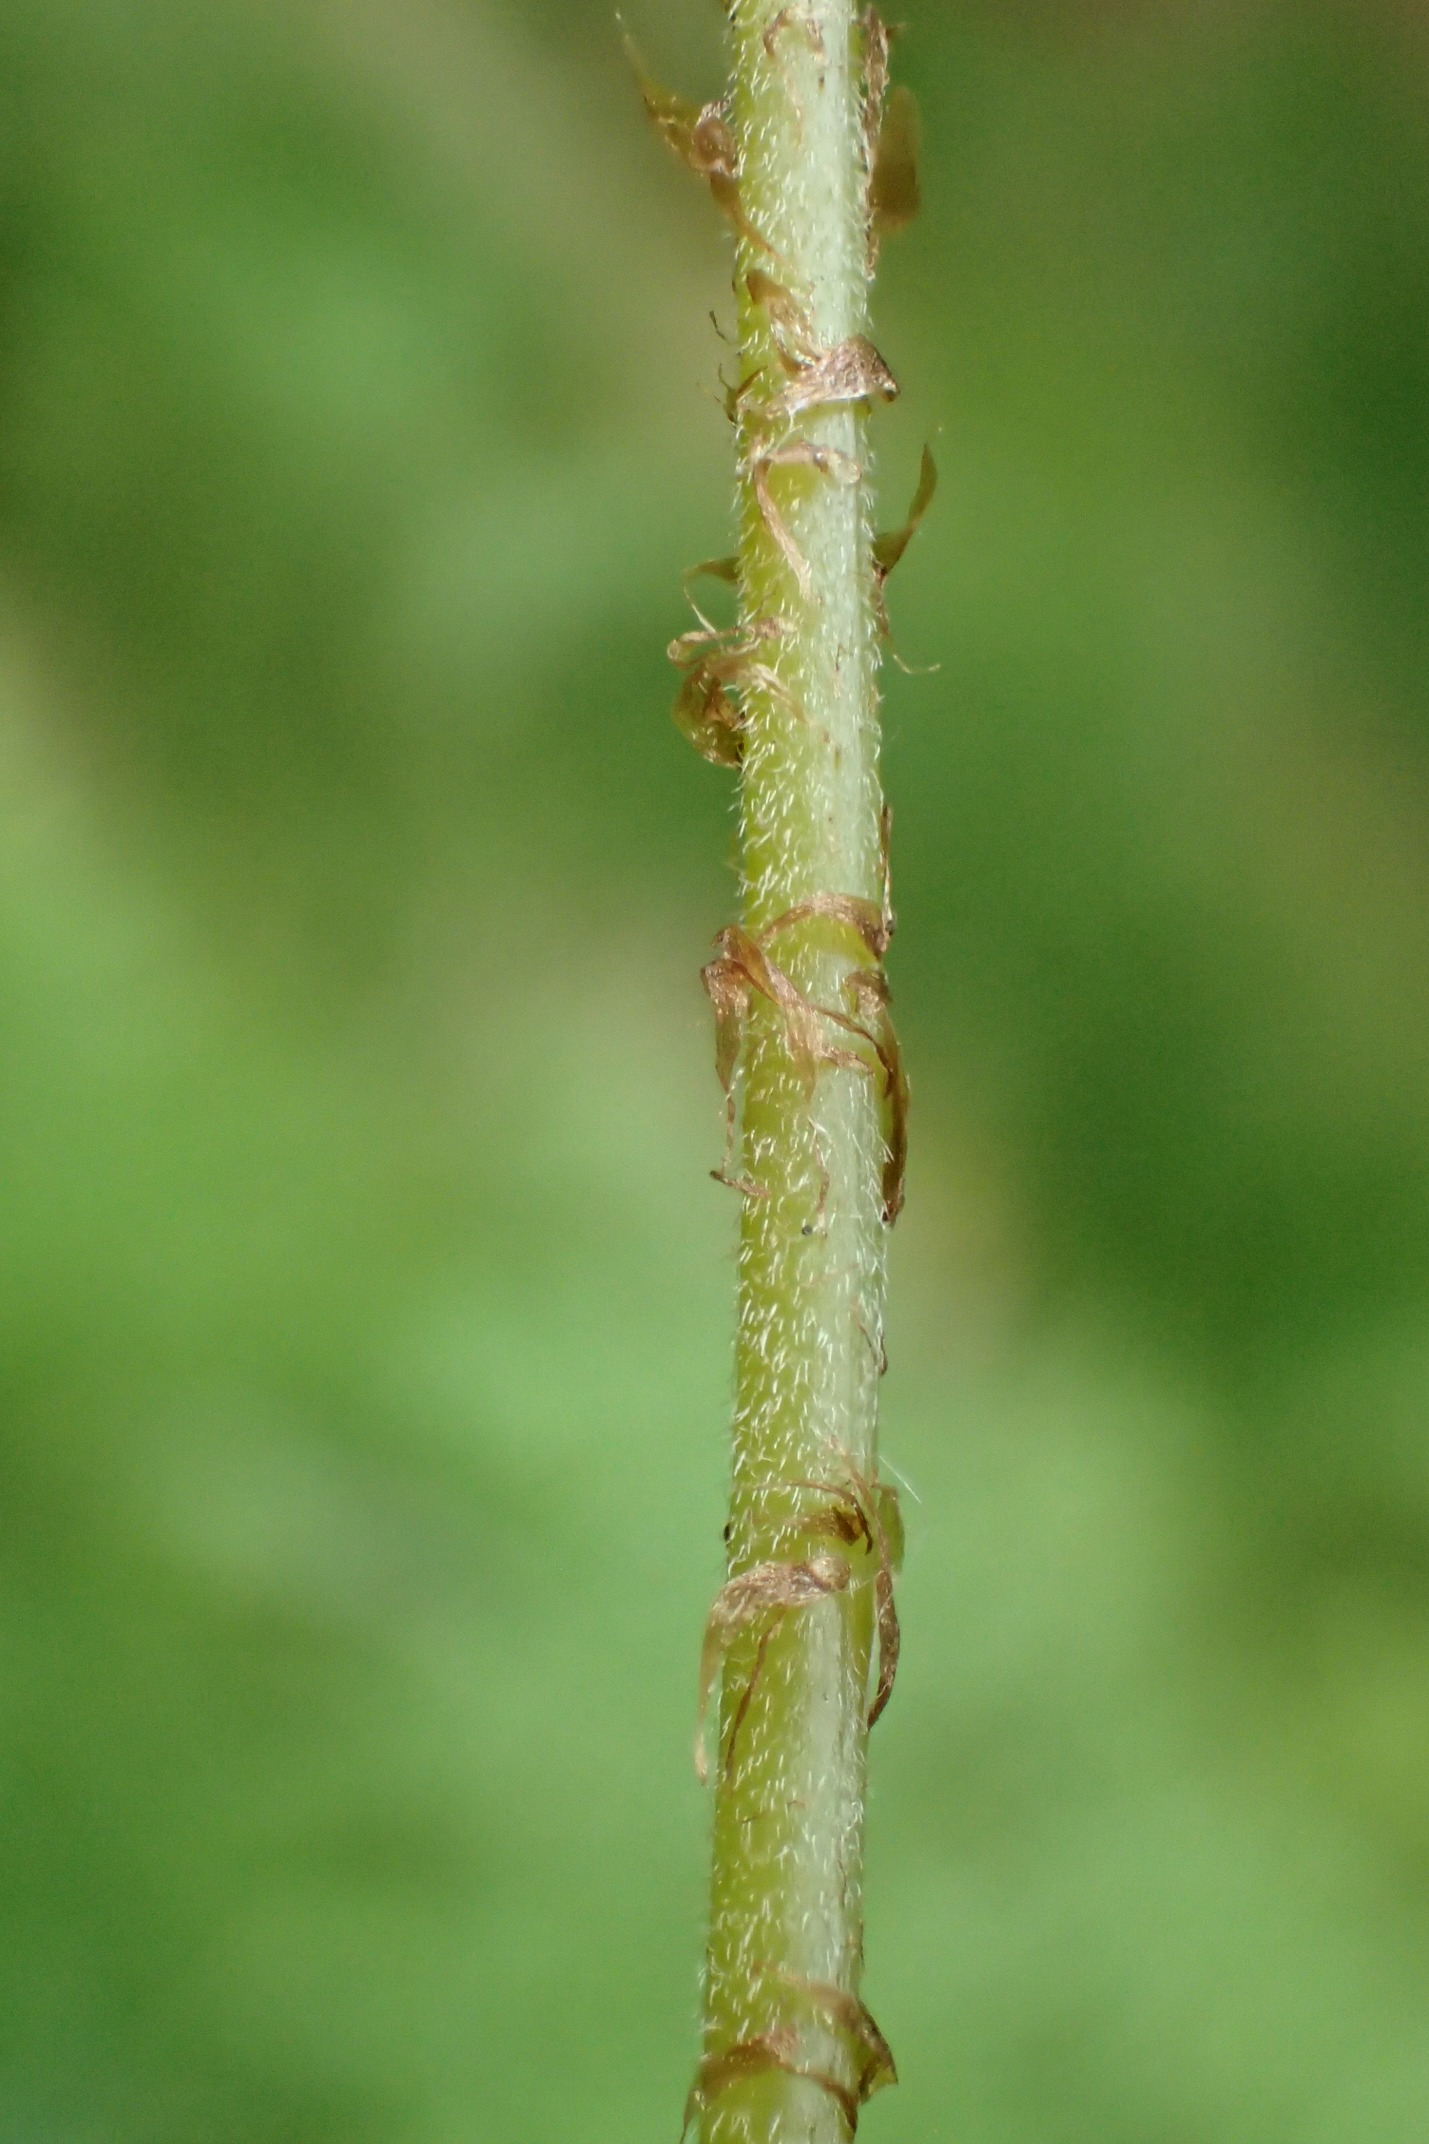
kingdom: Plantae
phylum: Tracheophyta
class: Polypodiopsida
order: Polypodiales
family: Thelypteridaceae
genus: Phegopteris
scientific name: Phegopteris connectilis
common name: Dunet egebregne
